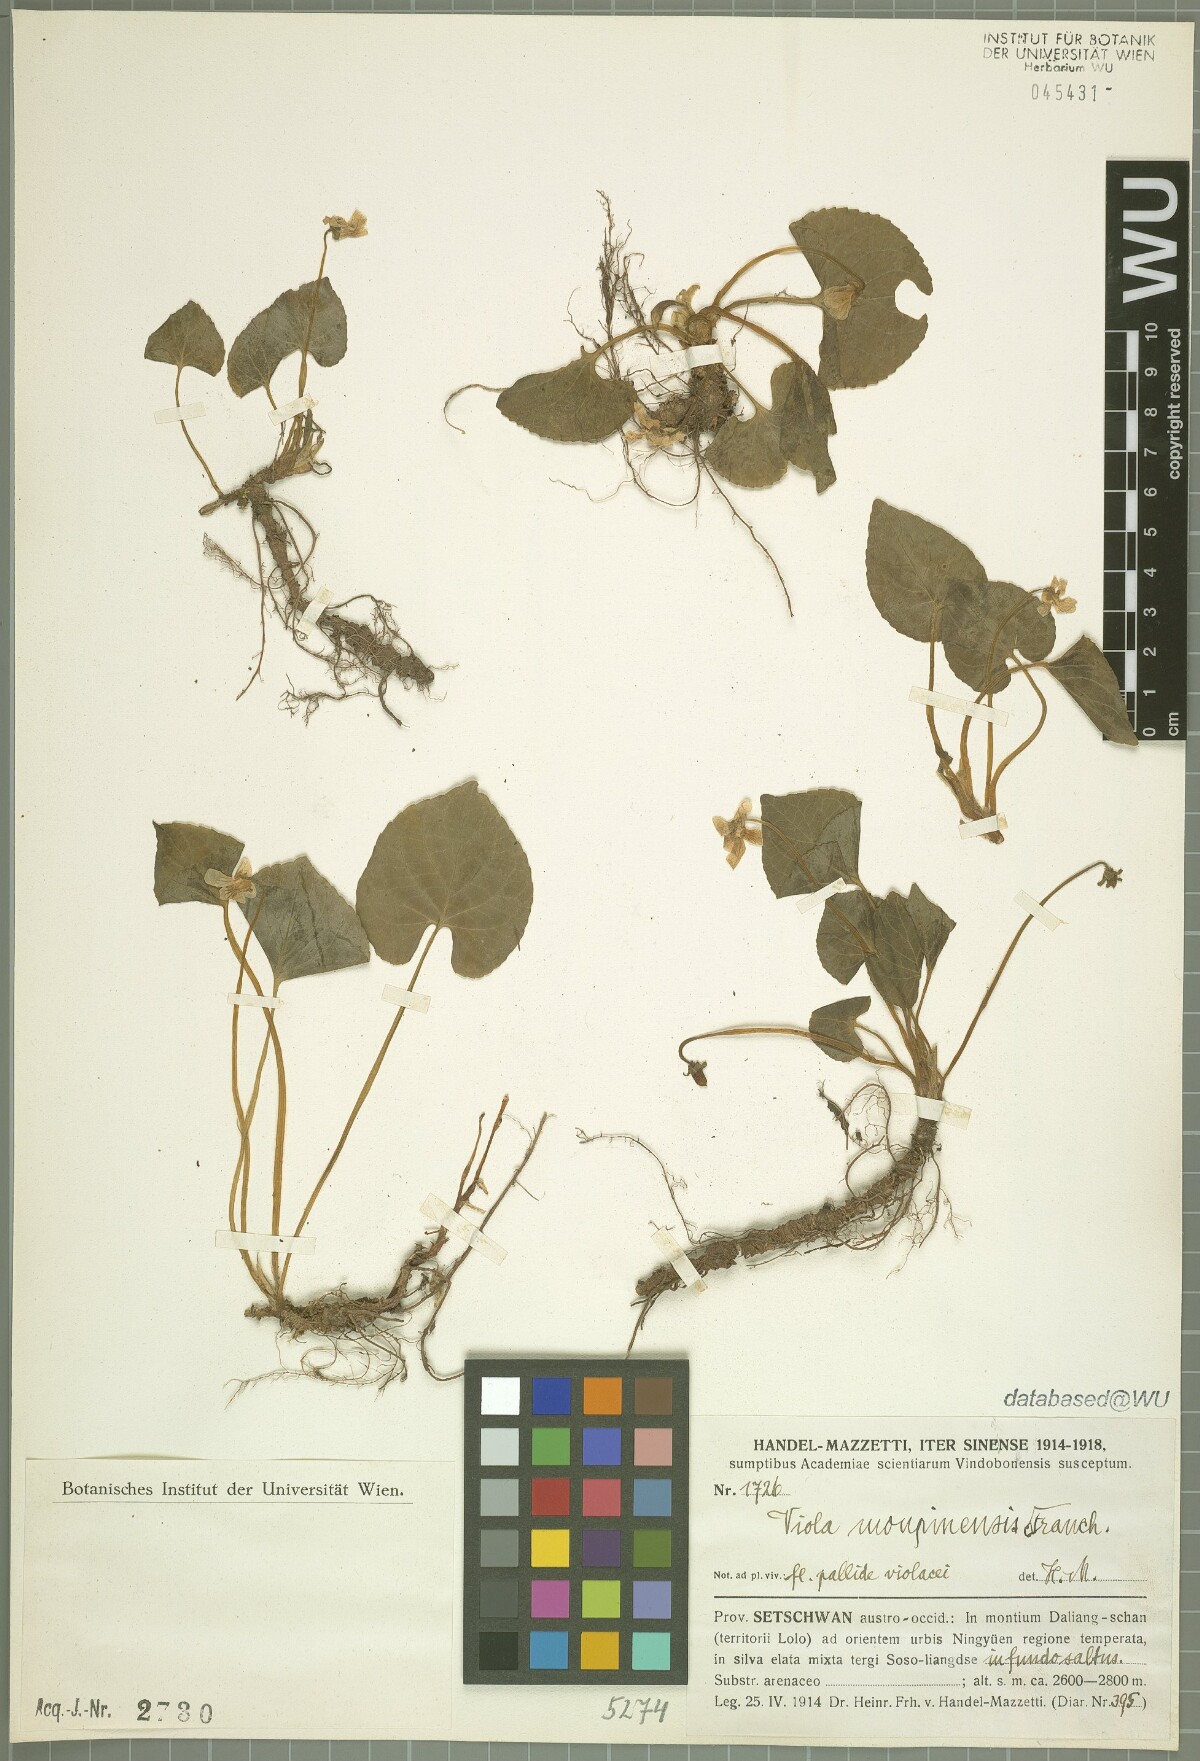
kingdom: Plantae
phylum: Tracheophyta
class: Magnoliopsida
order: Malpighiales
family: Violaceae
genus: Viola
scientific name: Viola moupinensis
